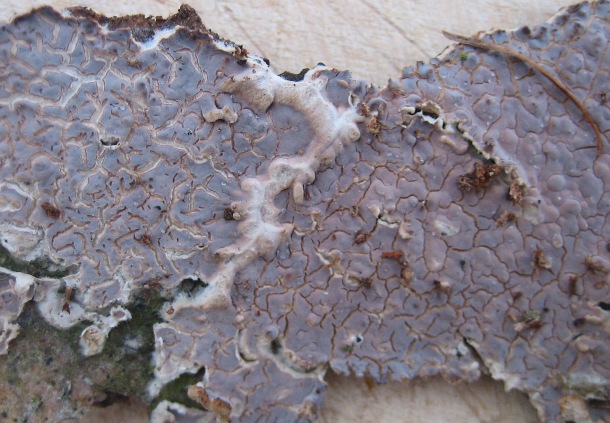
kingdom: Fungi
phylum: Basidiomycota
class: Agaricomycetes
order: Agaricales
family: Physalacriaceae
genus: Cylindrobasidium
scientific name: Cylindrobasidium evolvens
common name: sprækkehinde
